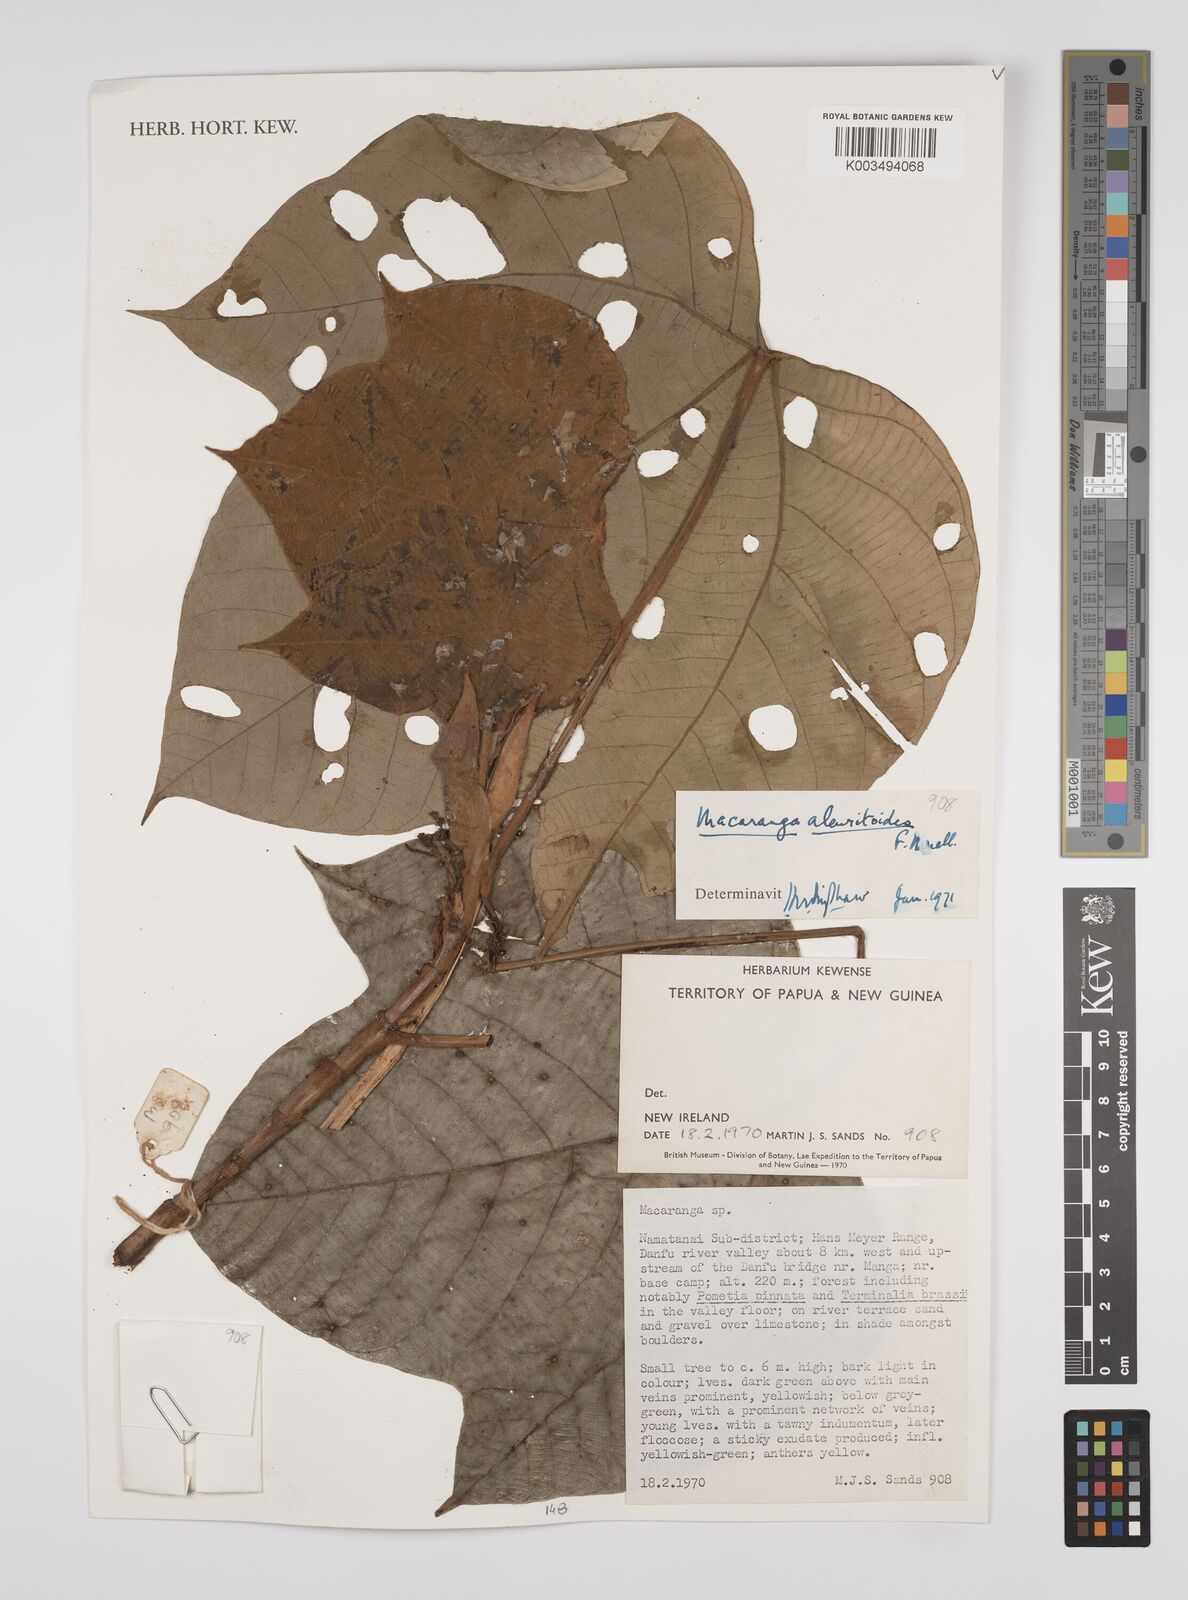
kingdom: Plantae
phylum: Tracheophyta
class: Magnoliopsida
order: Malpighiales
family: Euphorbiaceae
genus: Macaranga
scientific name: Macaranga aleuritoides
